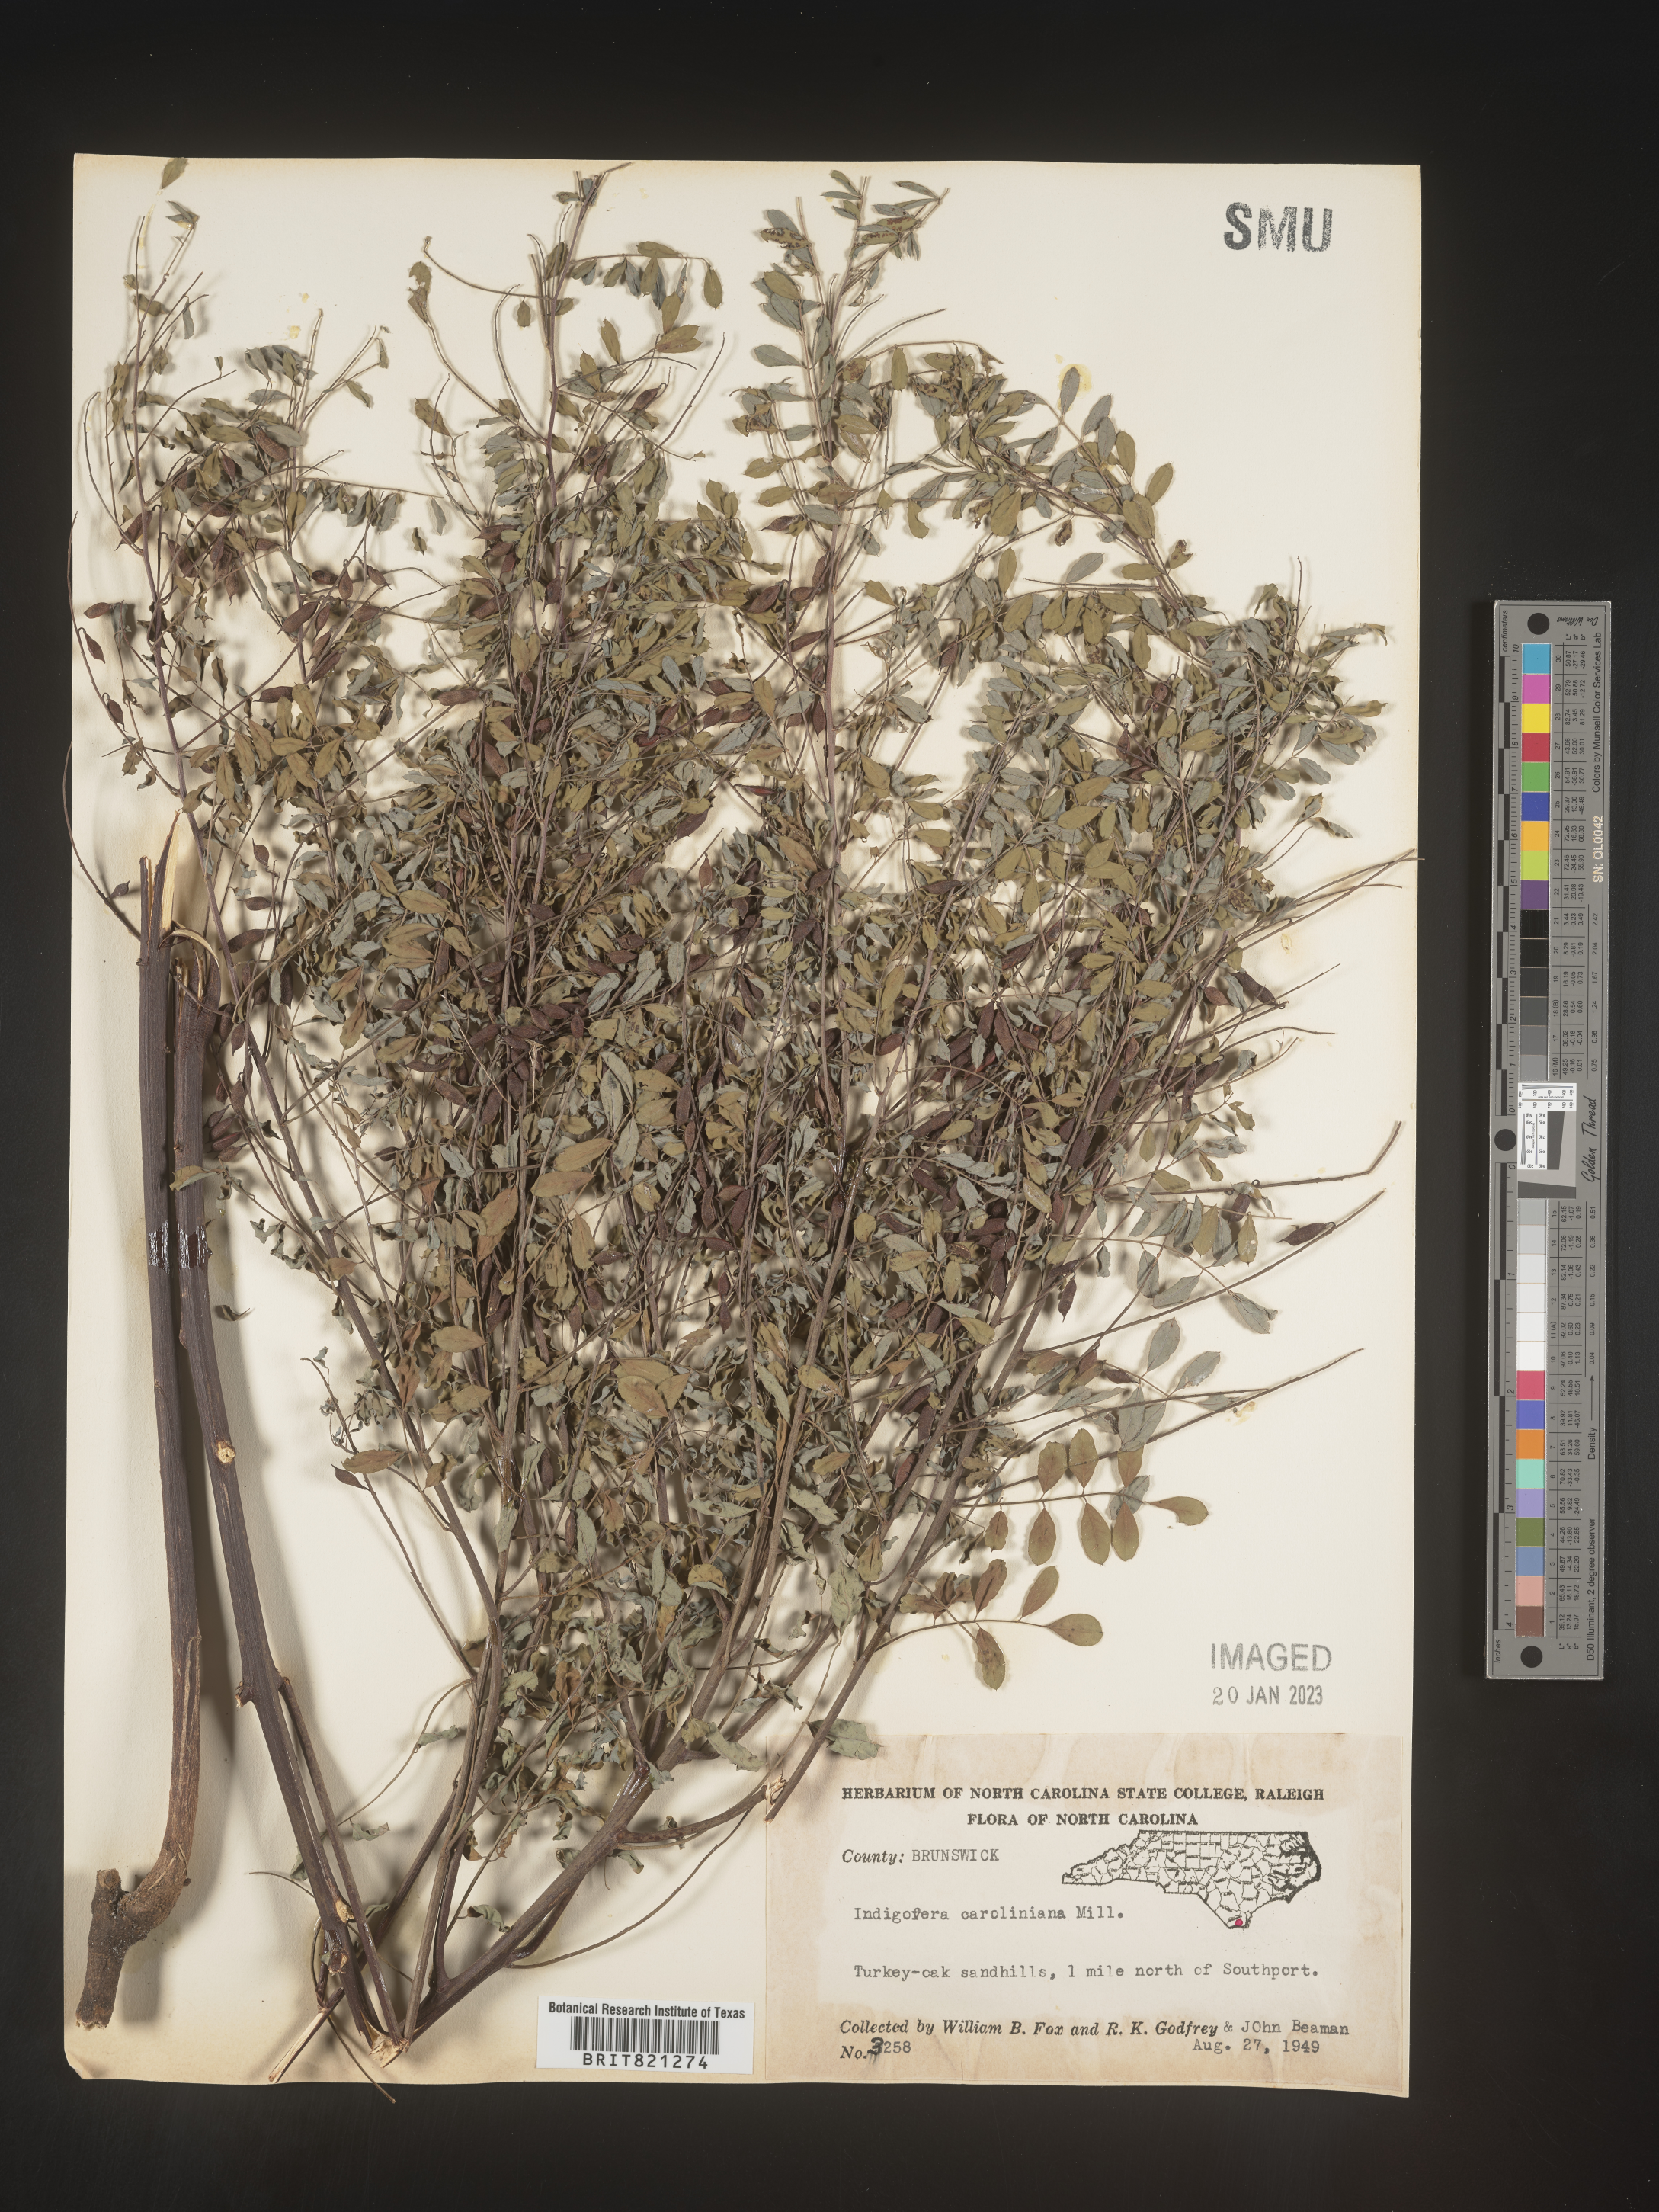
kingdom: Plantae
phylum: Tracheophyta
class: Magnoliopsida
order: Fabales
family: Fabaceae
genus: Indigofera
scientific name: Indigofera
